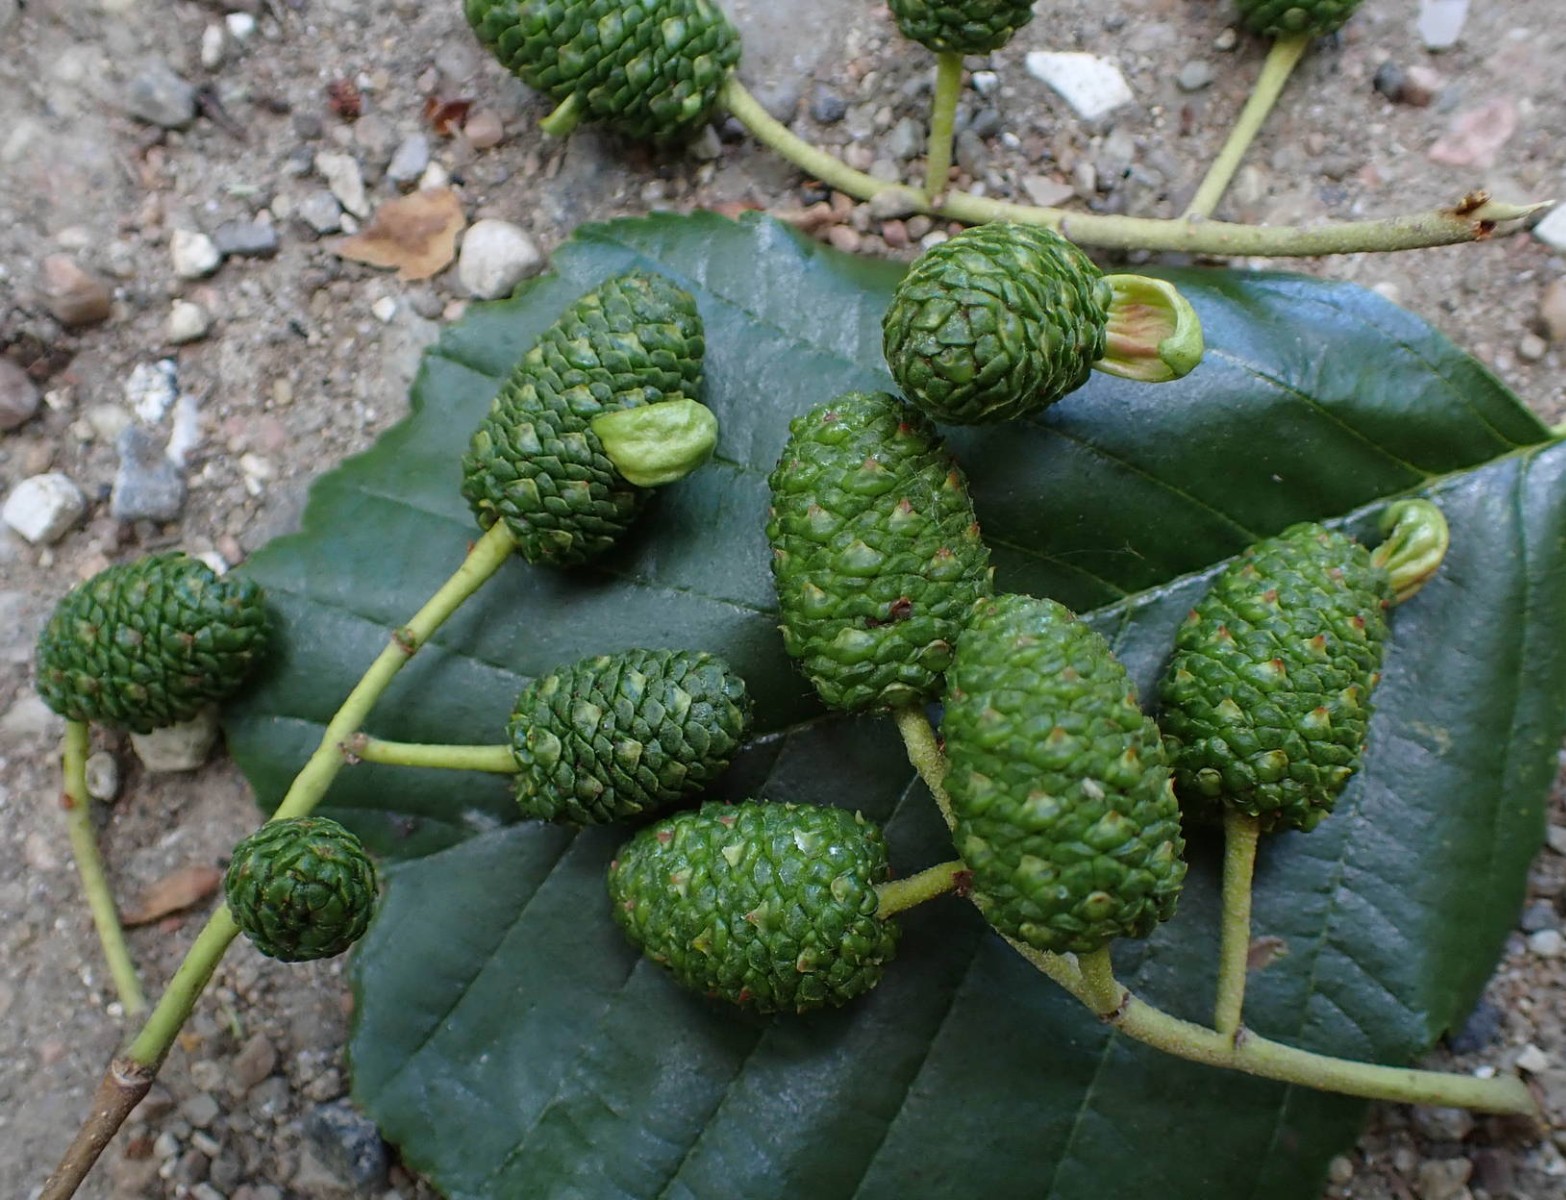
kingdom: Fungi
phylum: Ascomycota
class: Taphrinomycetes
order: Taphrinales
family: Taphrinaceae
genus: Taphrina
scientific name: Taphrina alni
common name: Alder tongue
